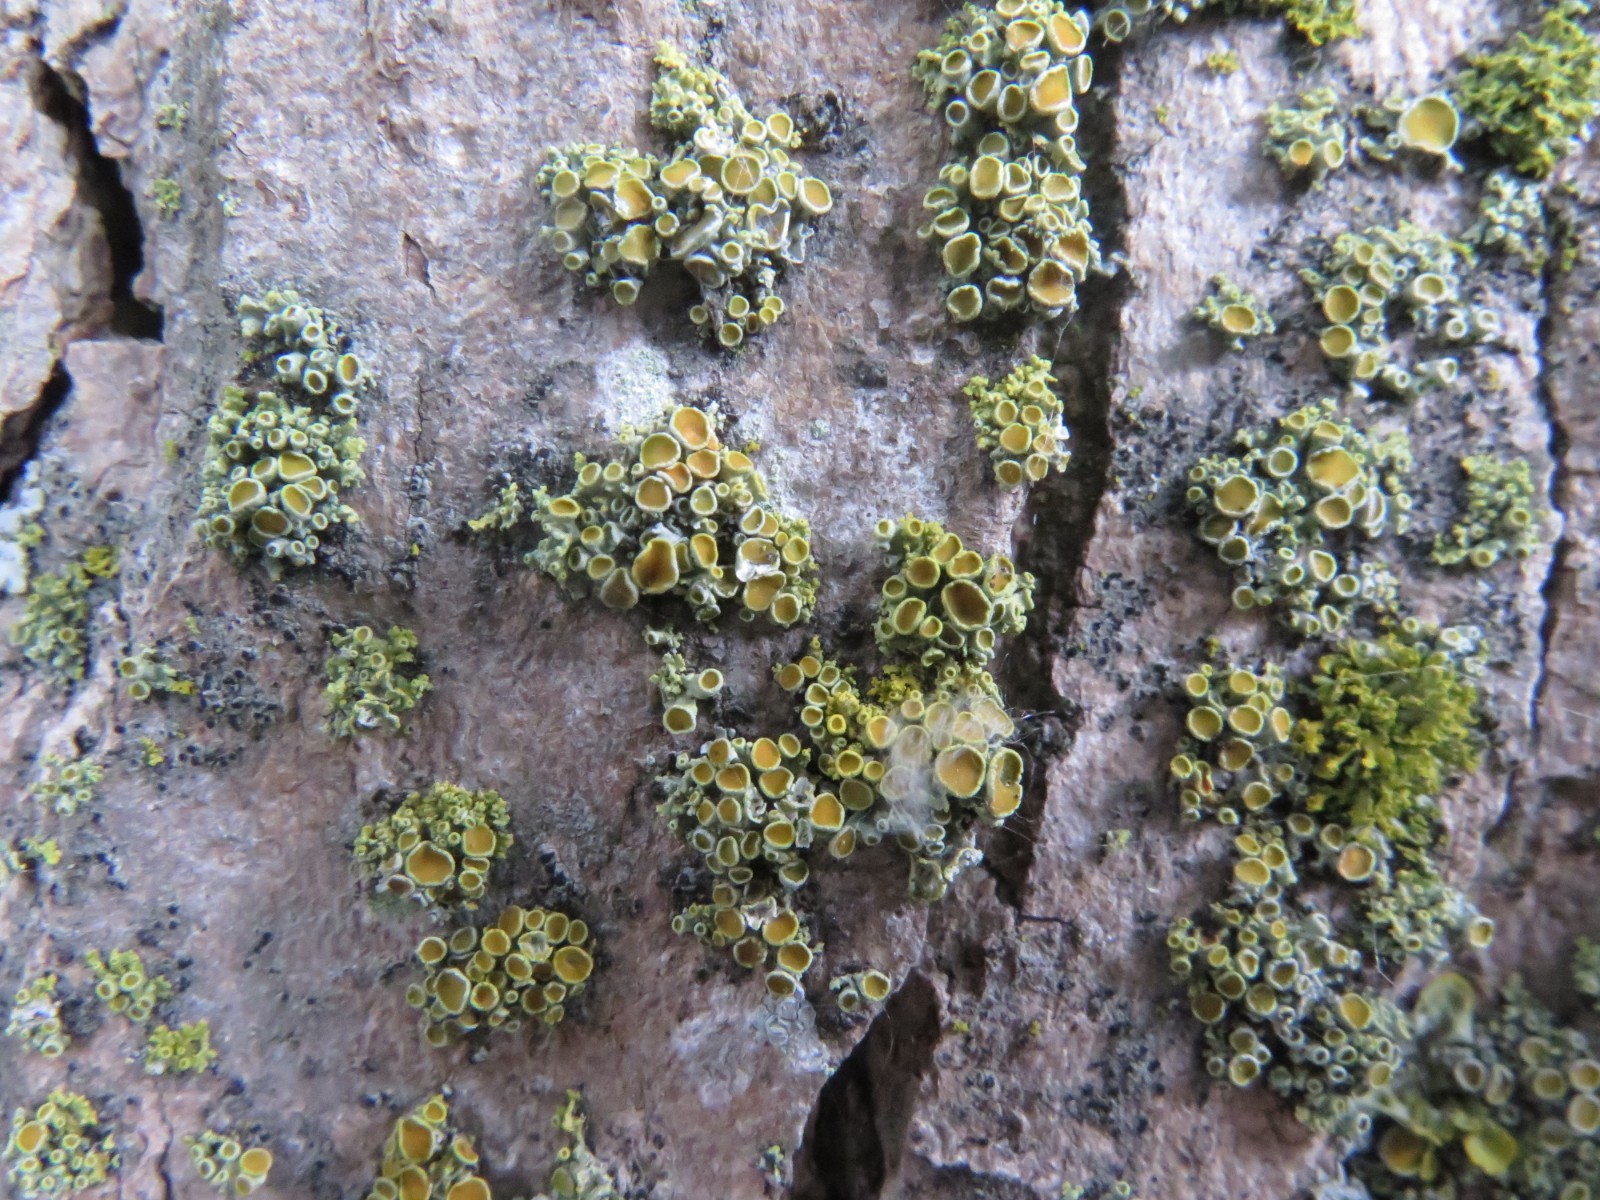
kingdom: Fungi
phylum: Ascomycota
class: Lecanoromycetes
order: Teloschistales
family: Teloschistaceae
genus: Polycauliona
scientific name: Polycauliona polycarpa
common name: mangefrugtet orangelav
